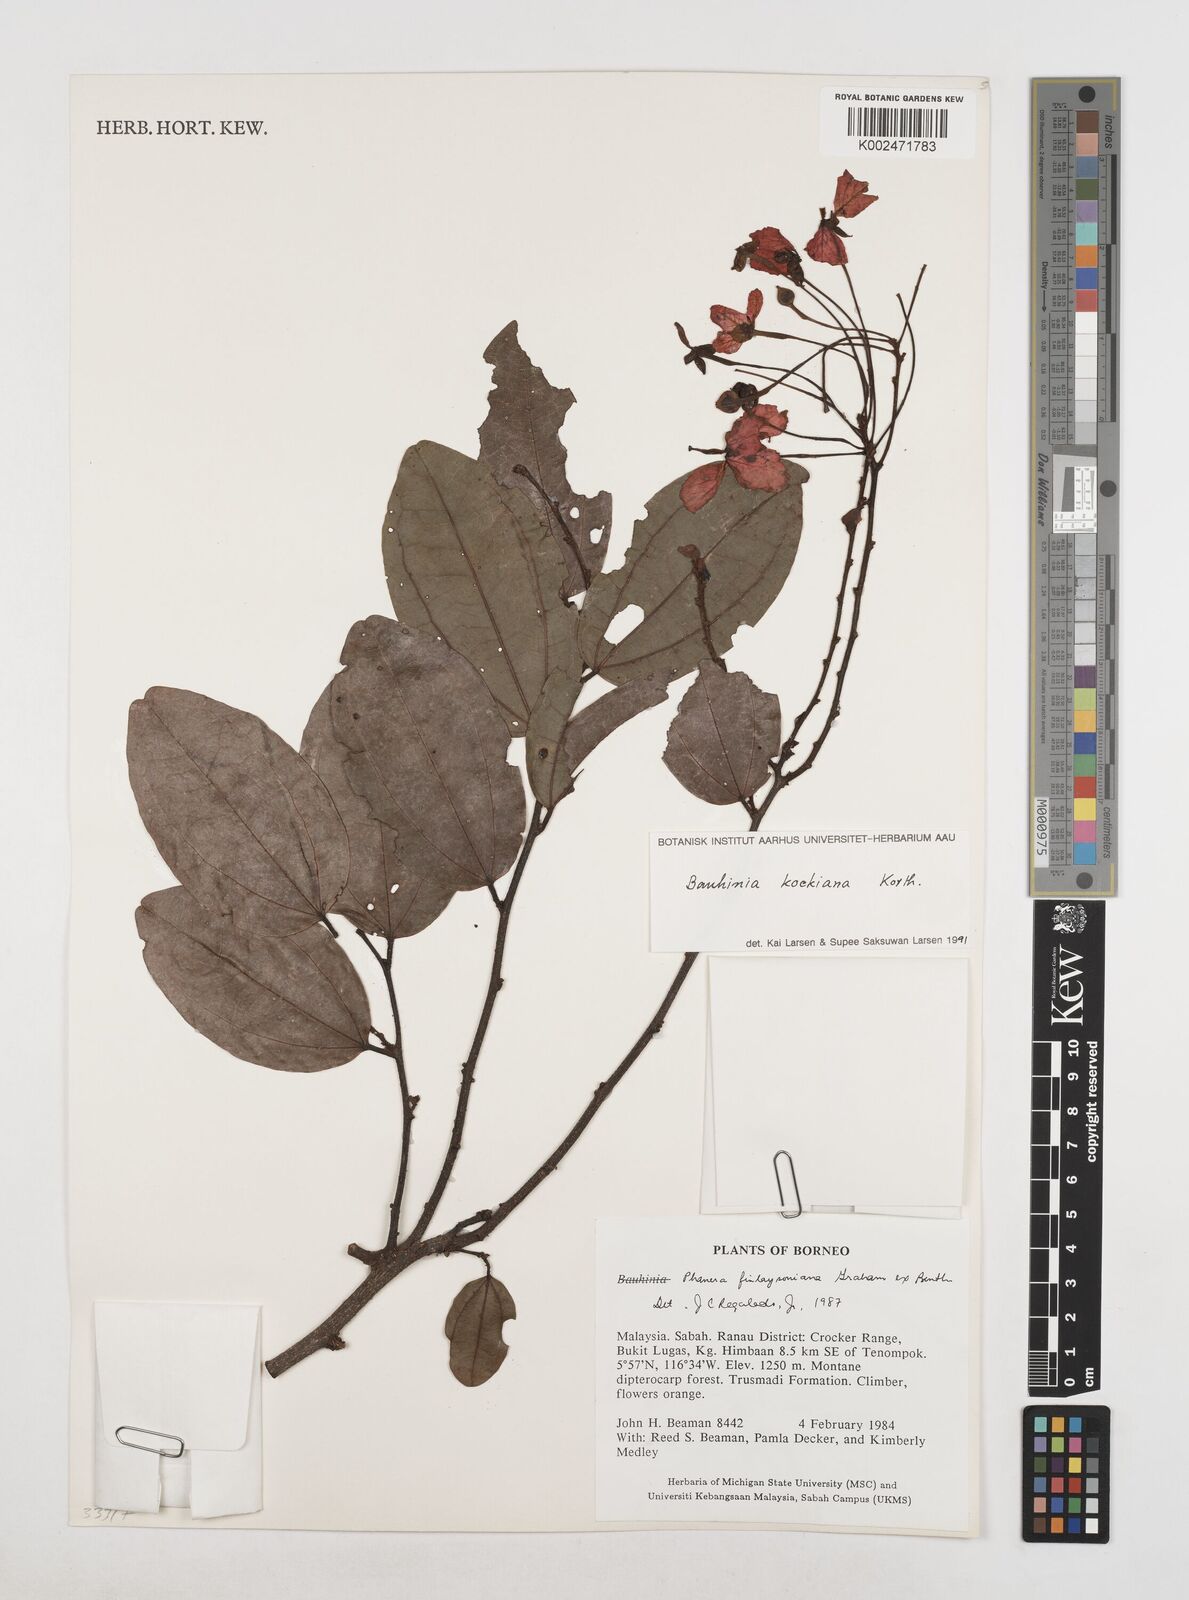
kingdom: Plantae
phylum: Tracheophyta
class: Magnoliopsida
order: Fabales
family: Fabaceae
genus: Phanera
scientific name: Phanera kockiana
